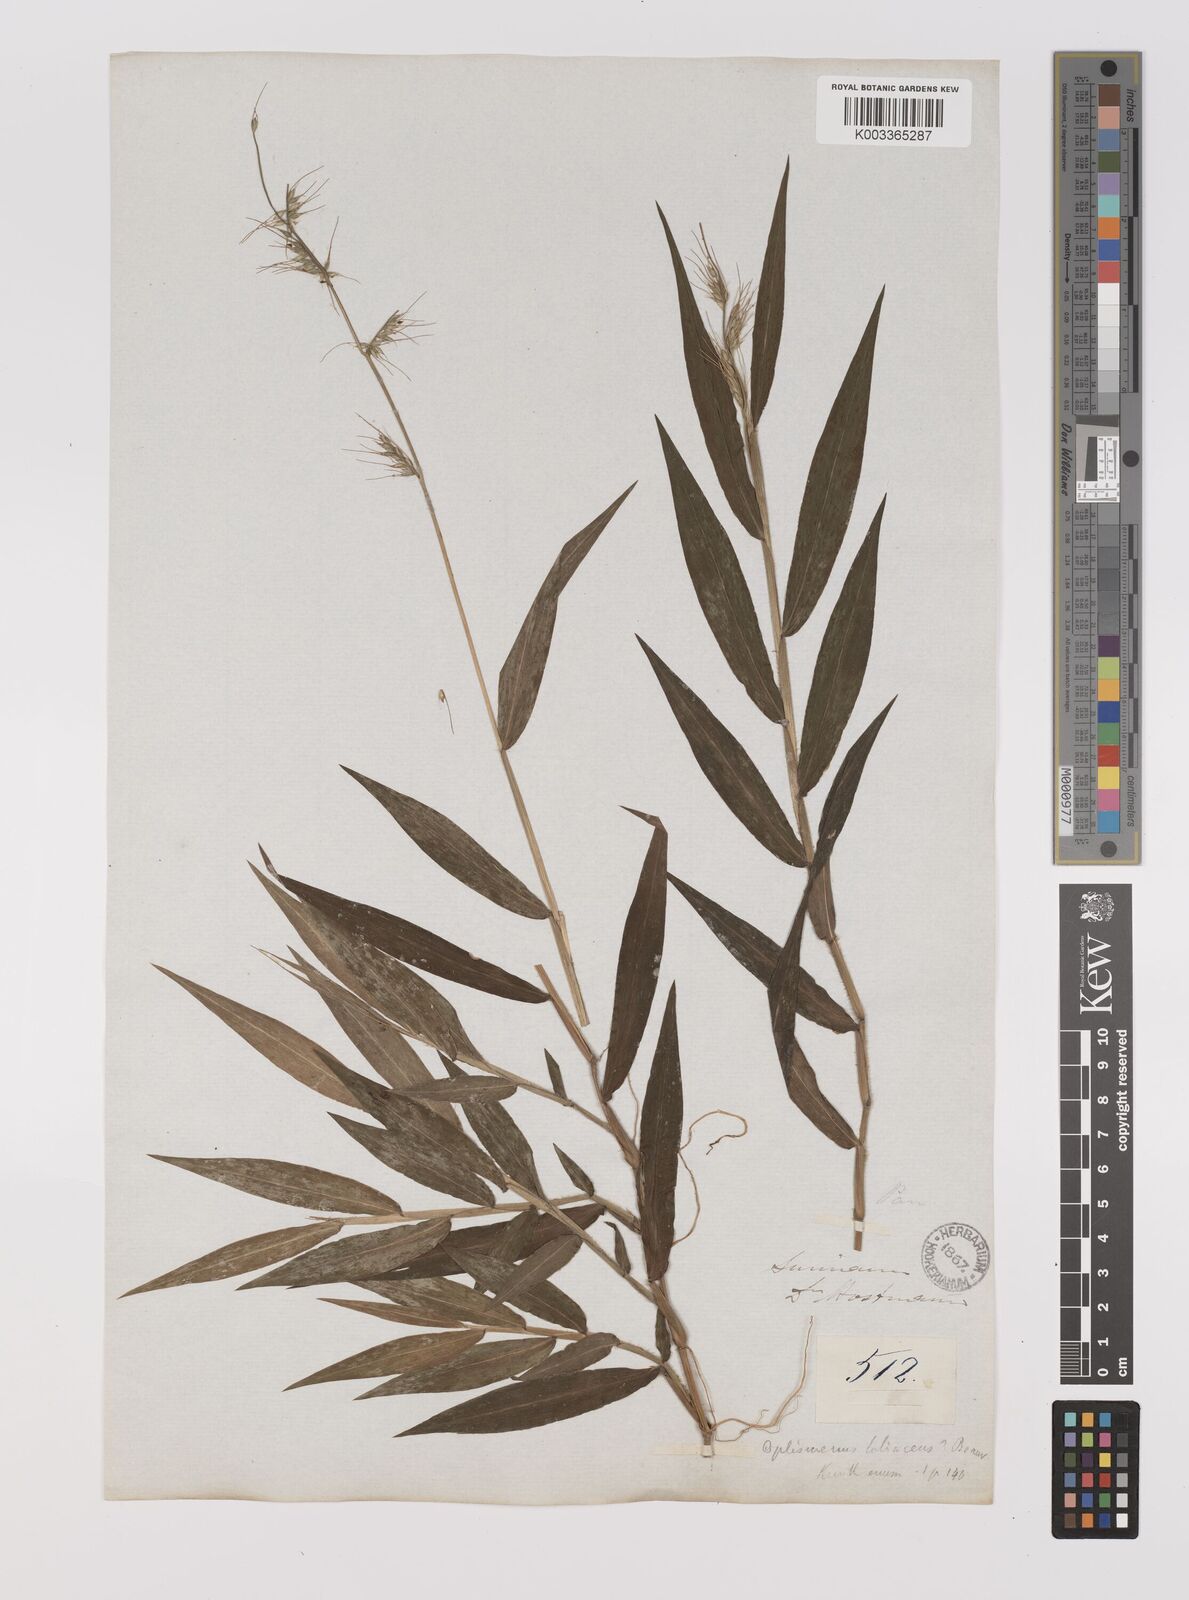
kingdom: Plantae
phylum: Tracheophyta
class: Liliopsida
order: Poales
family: Poaceae
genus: Oplismenus
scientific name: Oplismenus hirtellus
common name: Basketgrass
